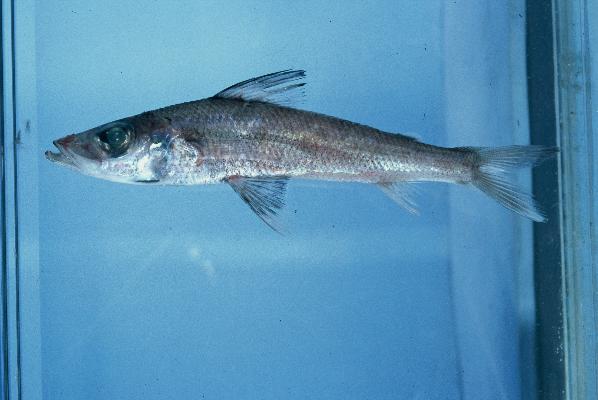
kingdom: Animalia
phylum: Chordata
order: Aulopiformes
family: Chlorophthalmidae
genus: Chlorophthalmus
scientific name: Chlorophthalmus vityazi
